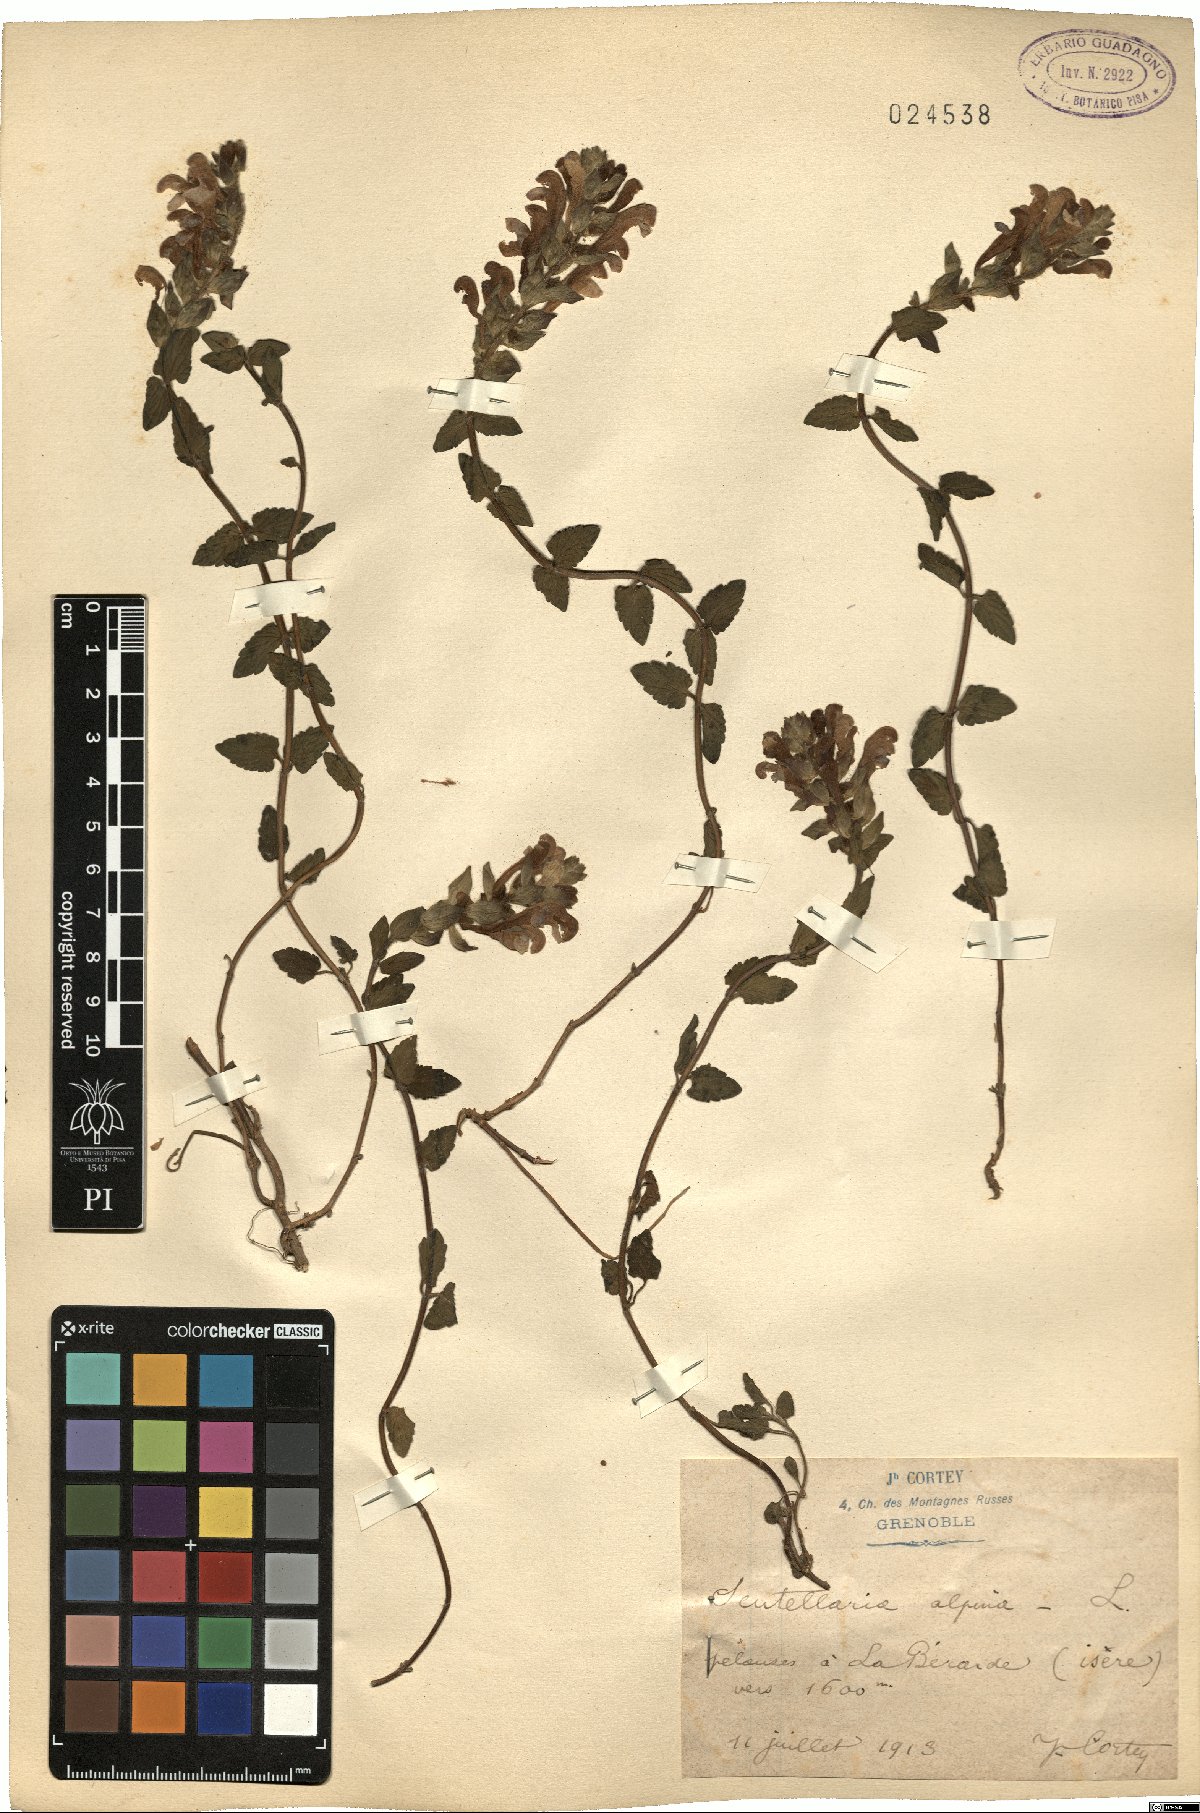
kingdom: Plantae
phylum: Tracheophyta
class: Magnoliopsida
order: Lamiales
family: Lamiaceae
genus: Scutellaria
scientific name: Scutellaria alpina
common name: Alpine scullcap
